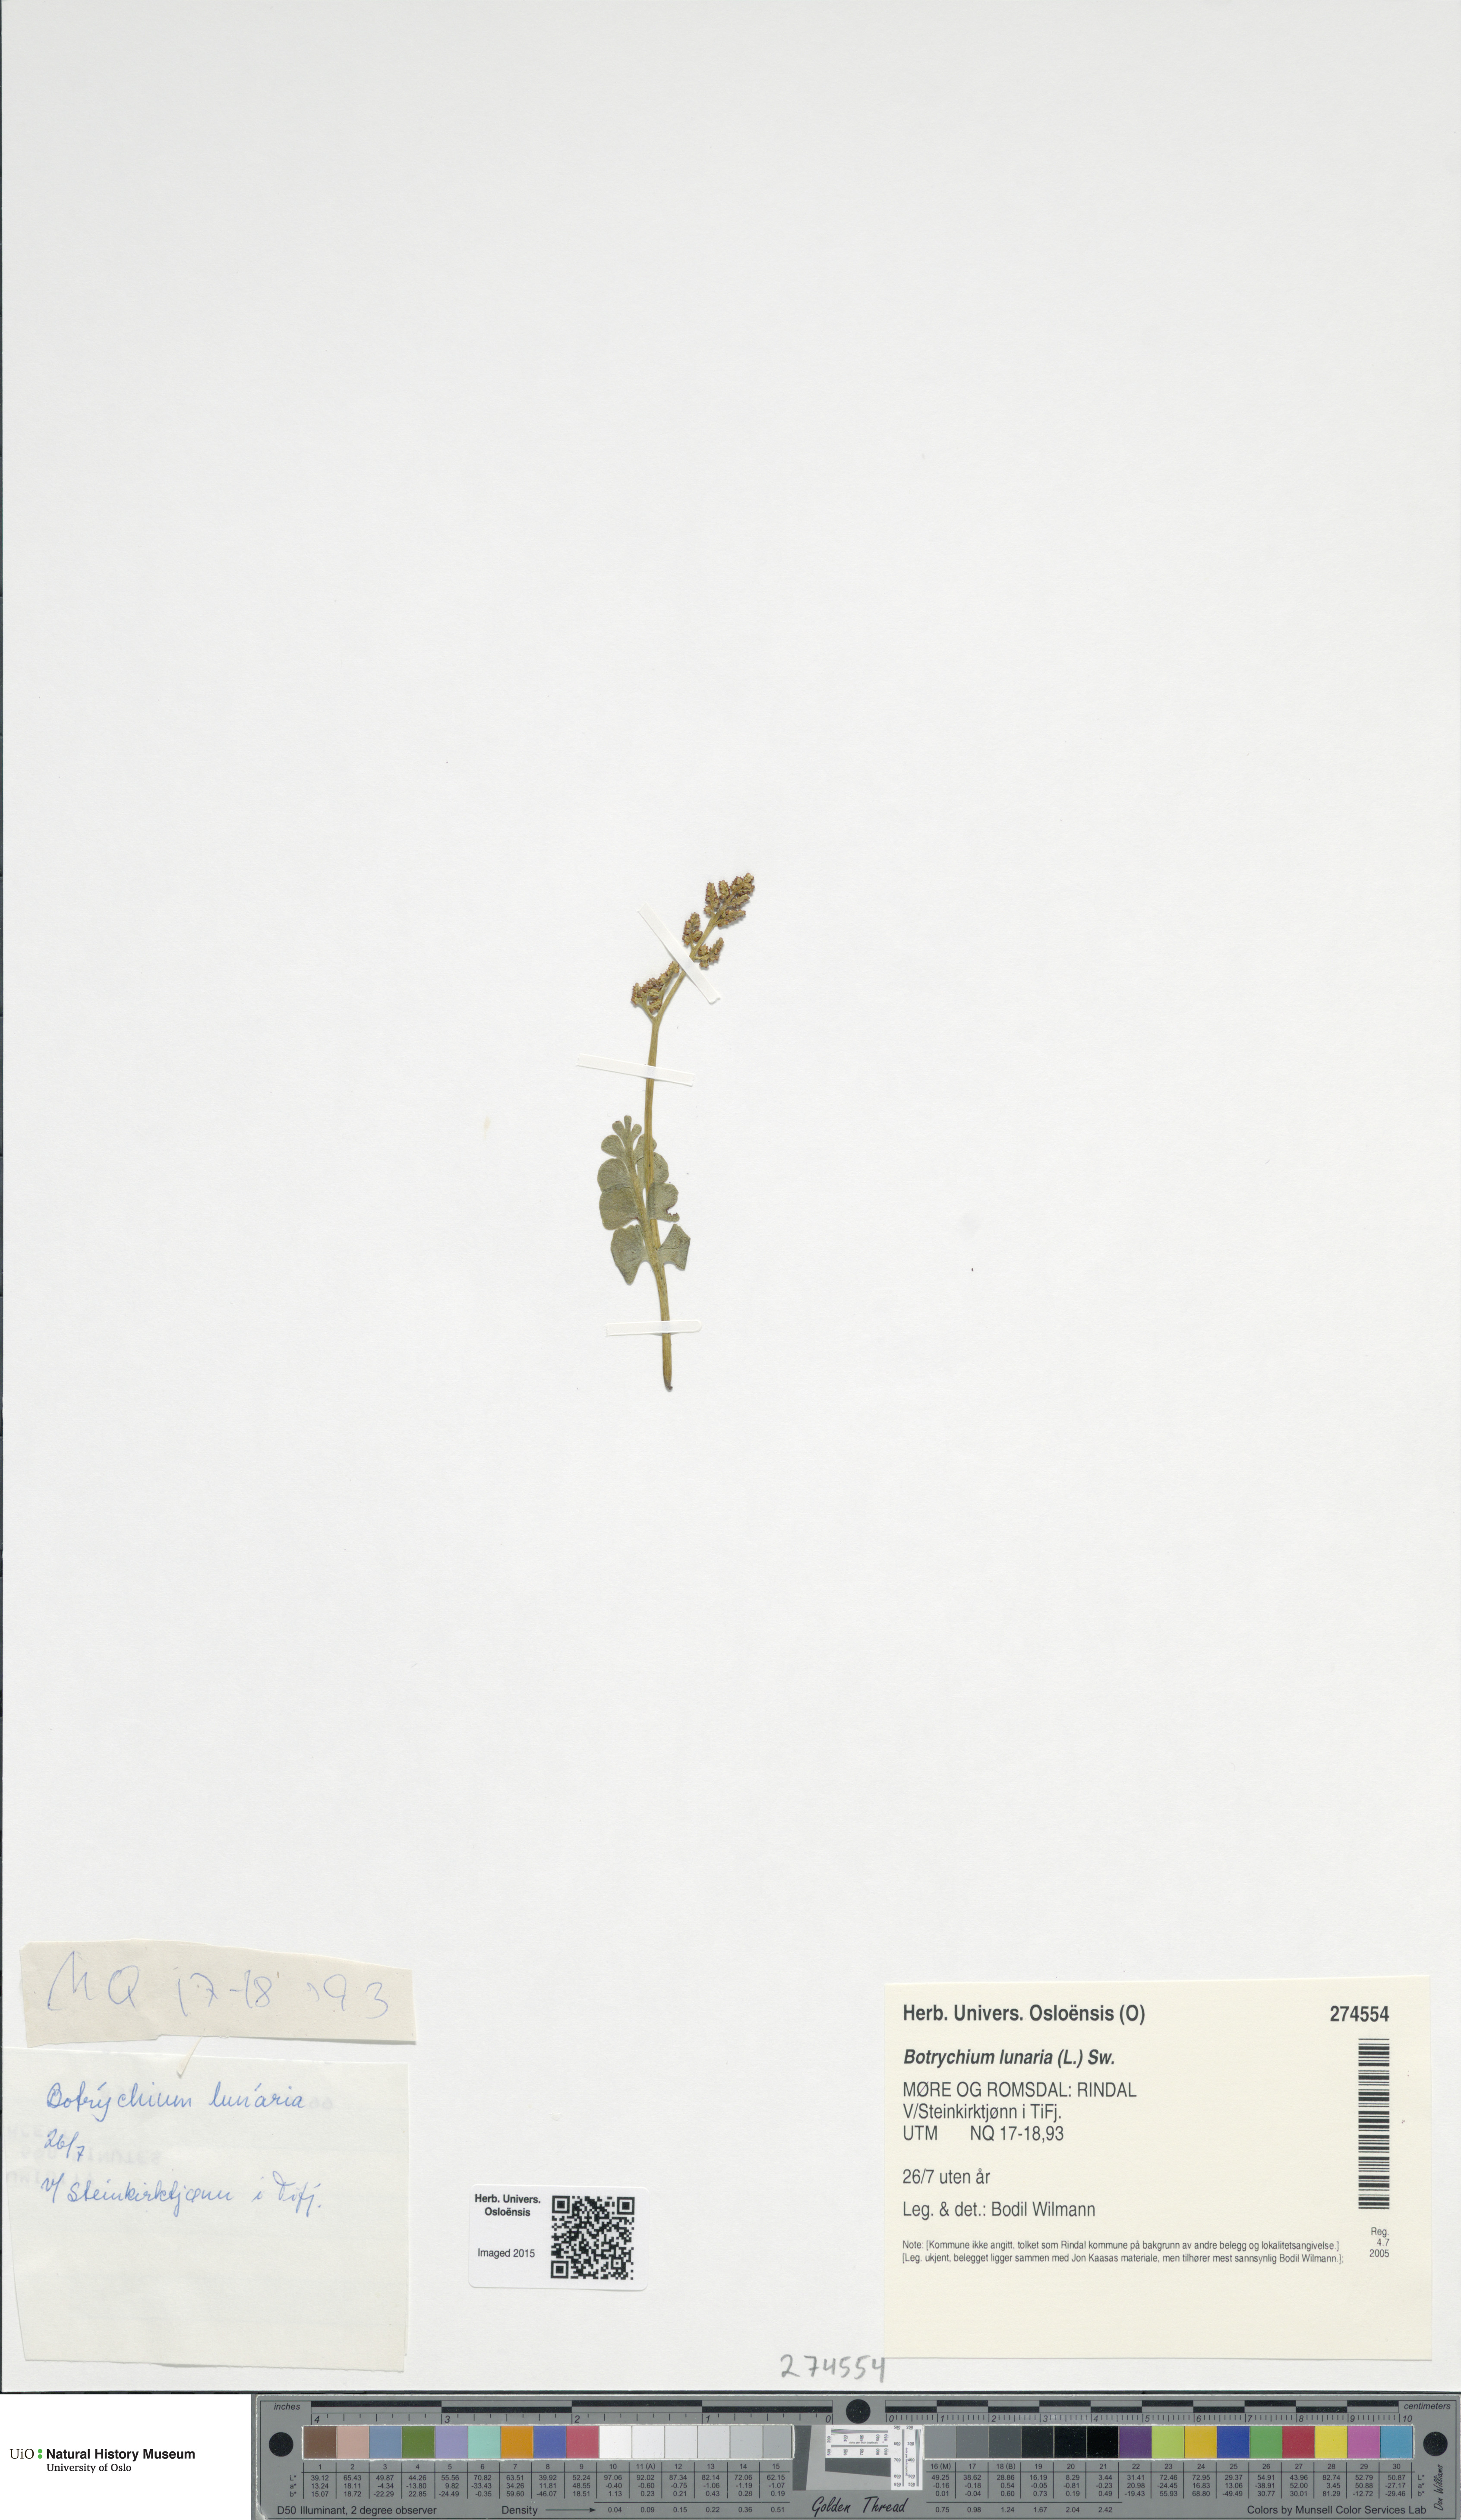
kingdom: Plantae
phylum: Tracheophyta
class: Polypodiopsida
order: Ophioglossales
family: Ophioglossaceae
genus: Botrychium
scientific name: Botrychium lunaria
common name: Moonwort
